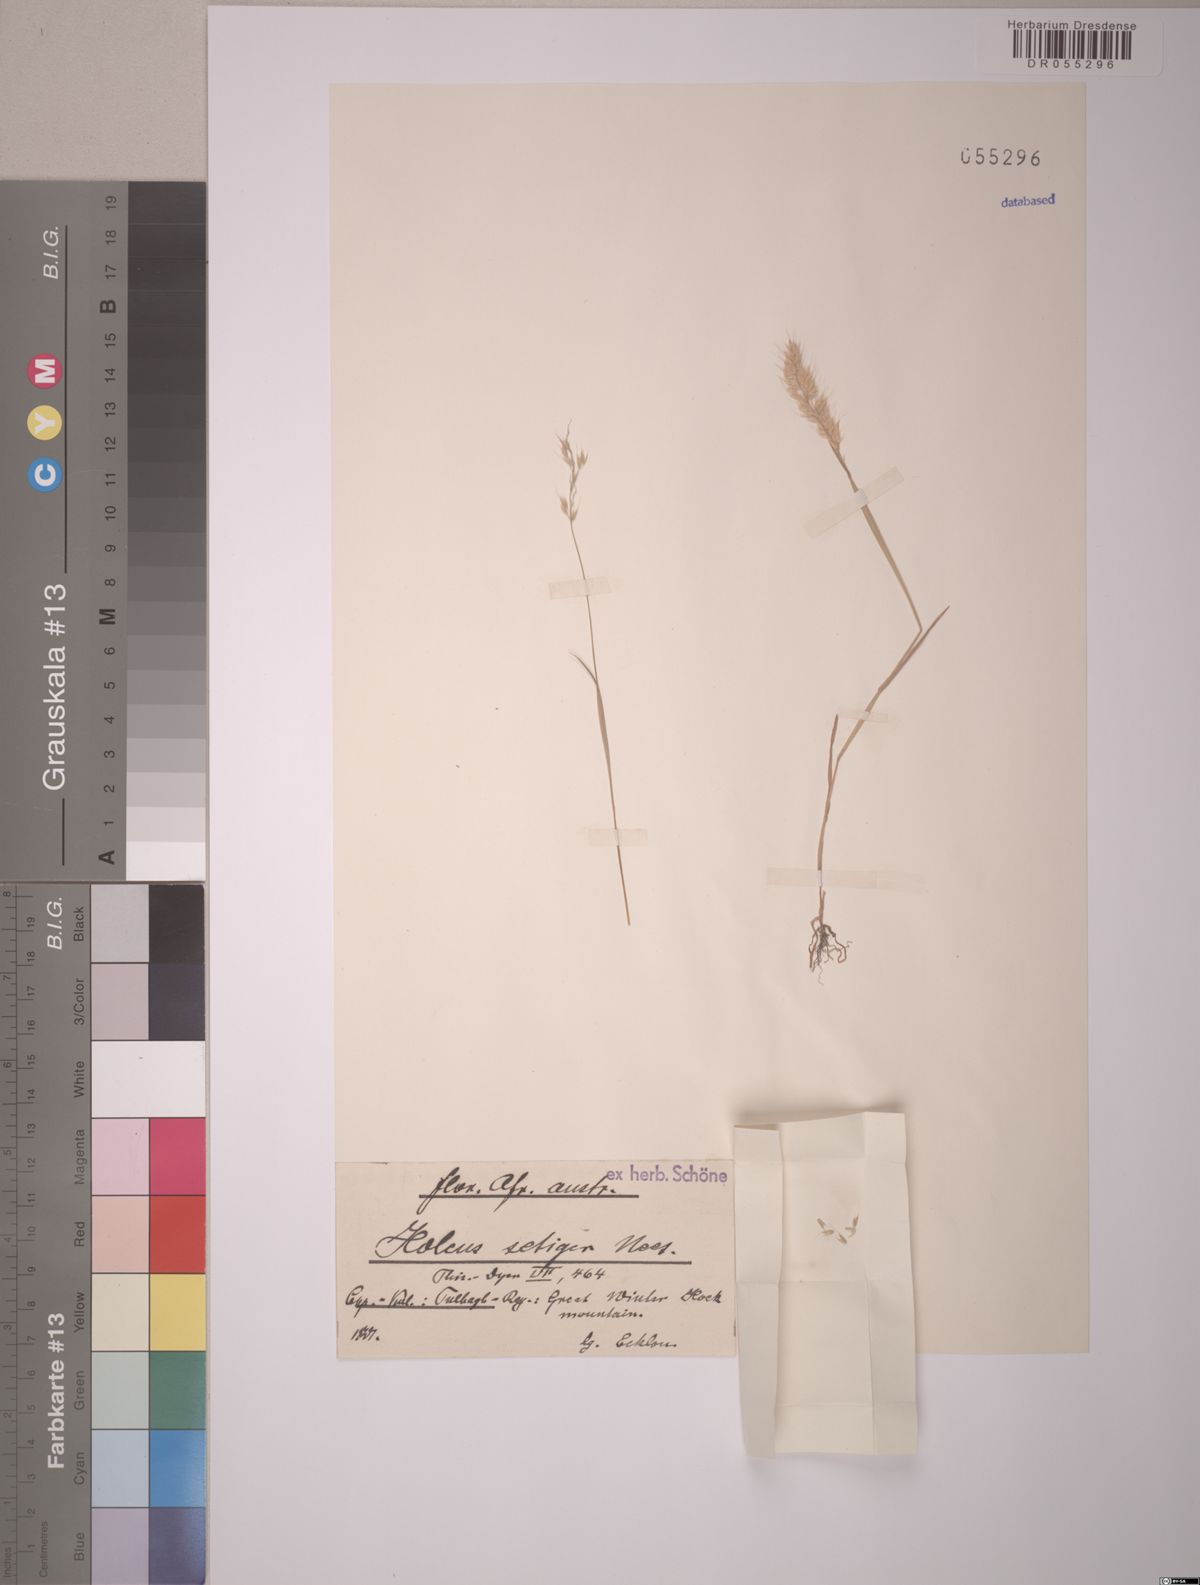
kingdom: Plantae
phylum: Tracheophyta
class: Liliopsida
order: Poales
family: Poaceae
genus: Holcus
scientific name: Holcus setiger
